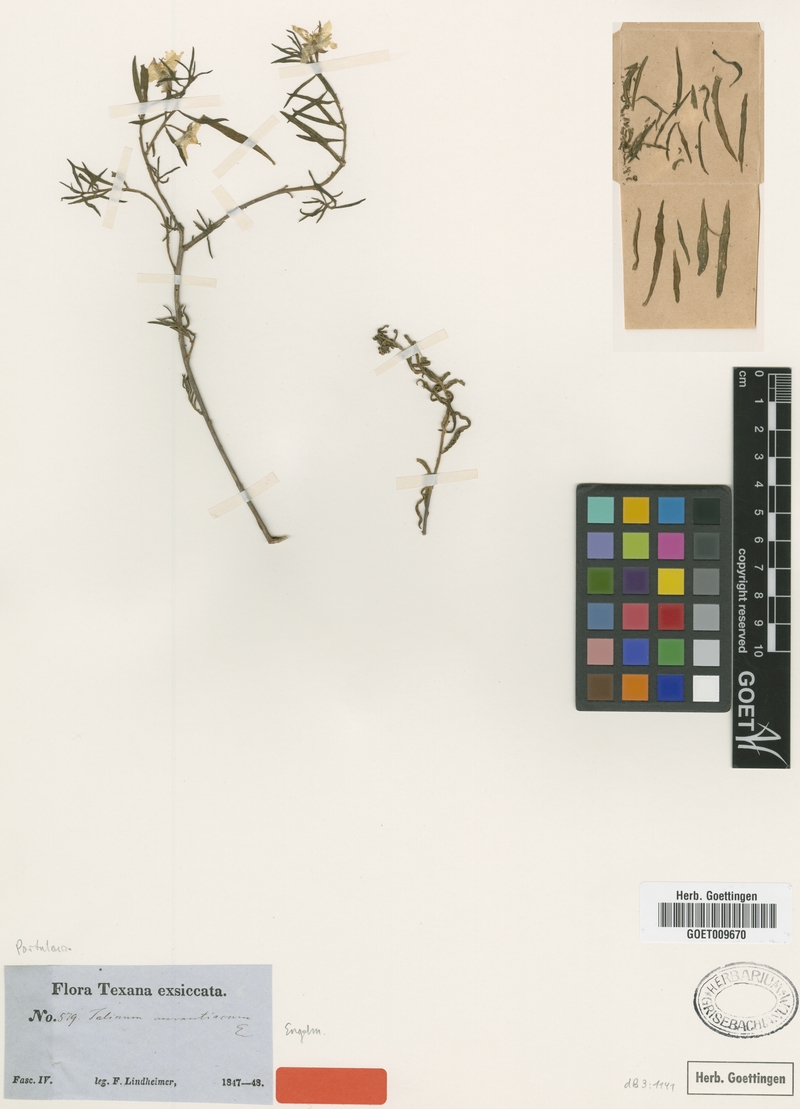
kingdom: Plantae
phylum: Tracheophyta
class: Magnoliopsida
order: Caryophyllales
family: Montiaceae
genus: Phemeranthus
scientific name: Phemeranthus aurantiacus
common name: Orange fameflower
